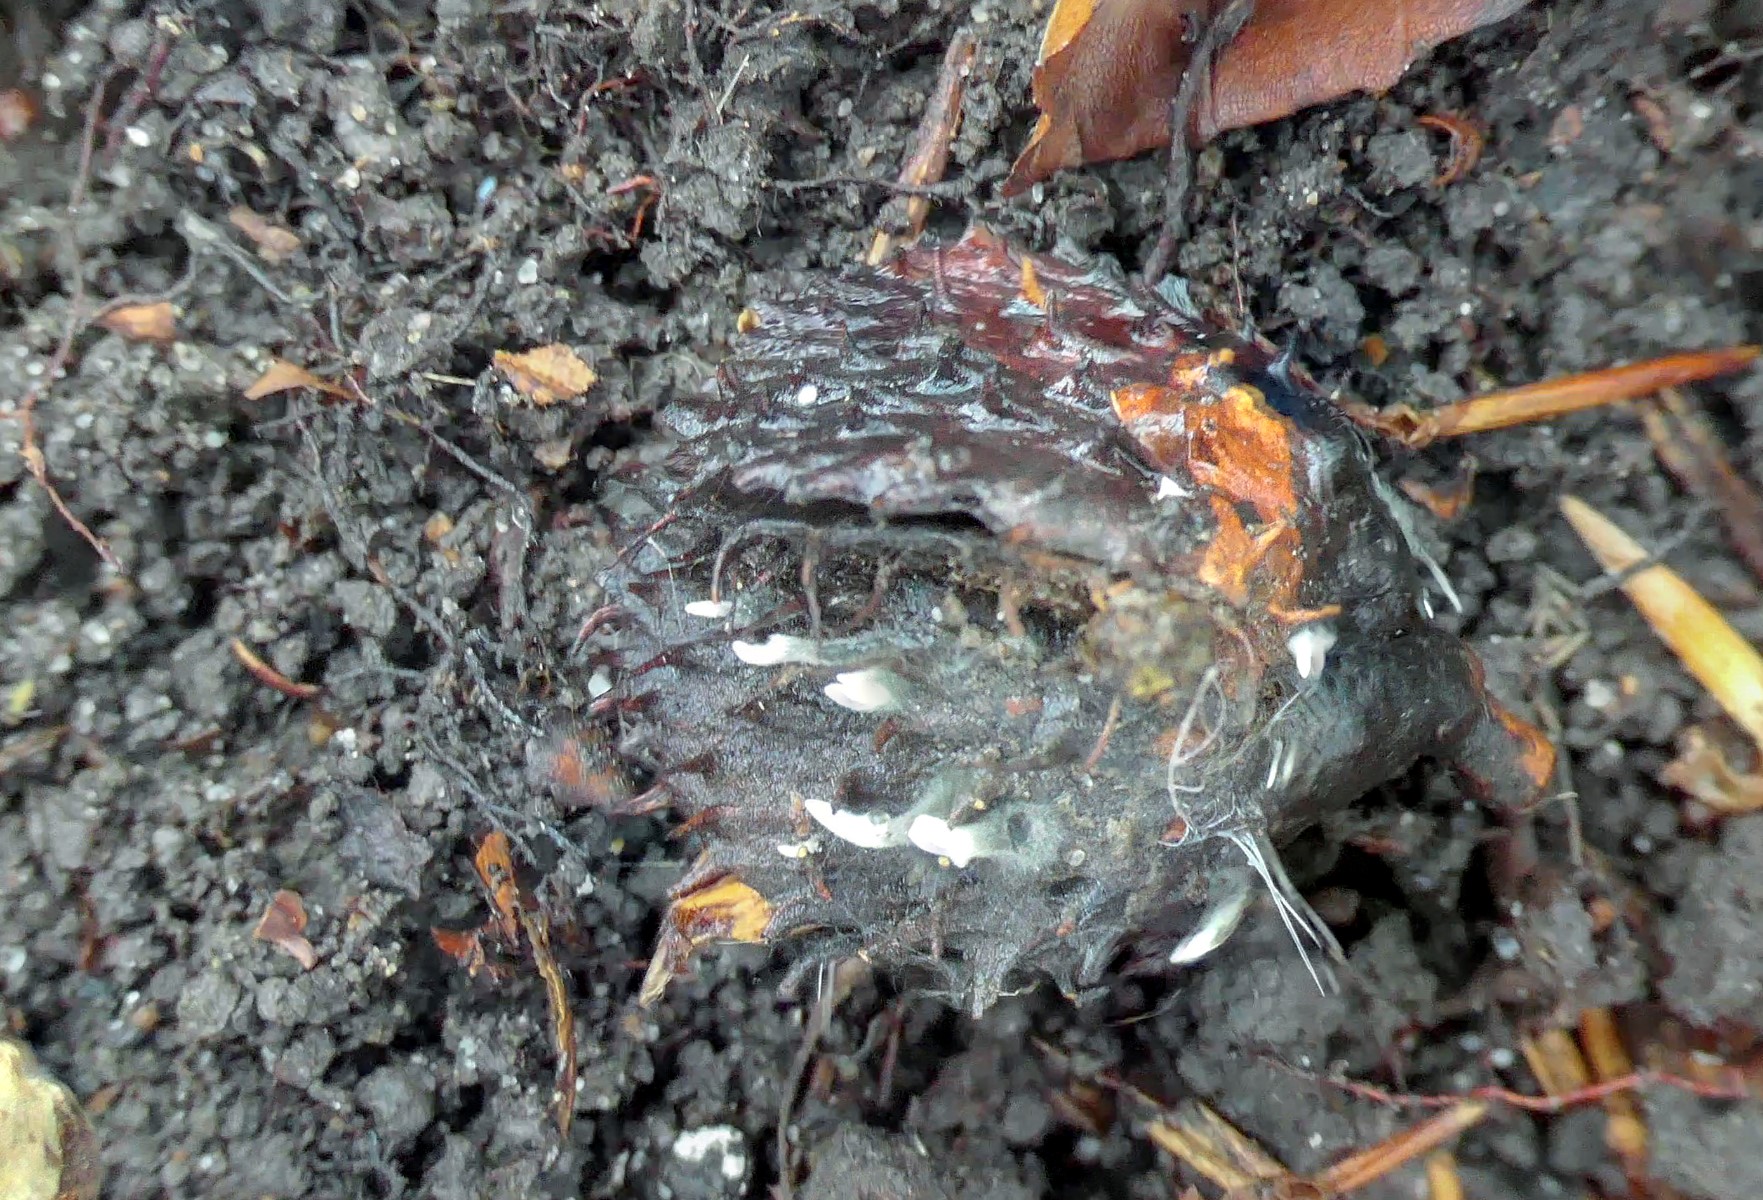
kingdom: Fungi
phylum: Ascomycota
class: Sordariomycetes
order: Xylariales
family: Xylariaceae
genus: Xylaria
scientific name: Xylaria carpophila
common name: bogskål-stødsvamp
